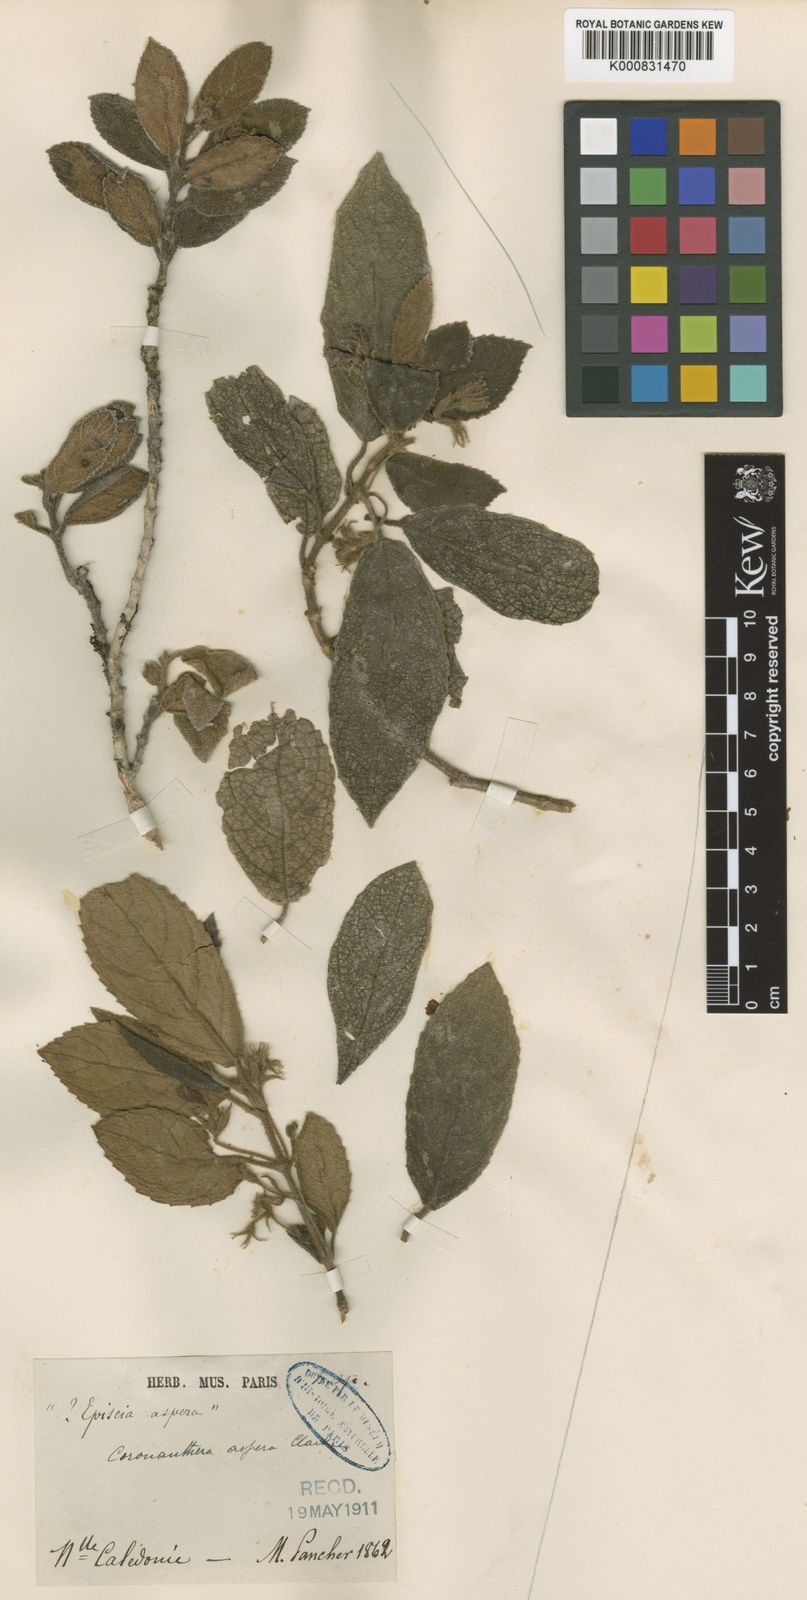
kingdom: Plantae
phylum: Tracheophyta
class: Magnoliopsida
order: Lamiales
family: Gesneriaceae
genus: Coronanthera
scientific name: Coronanthera aspera
